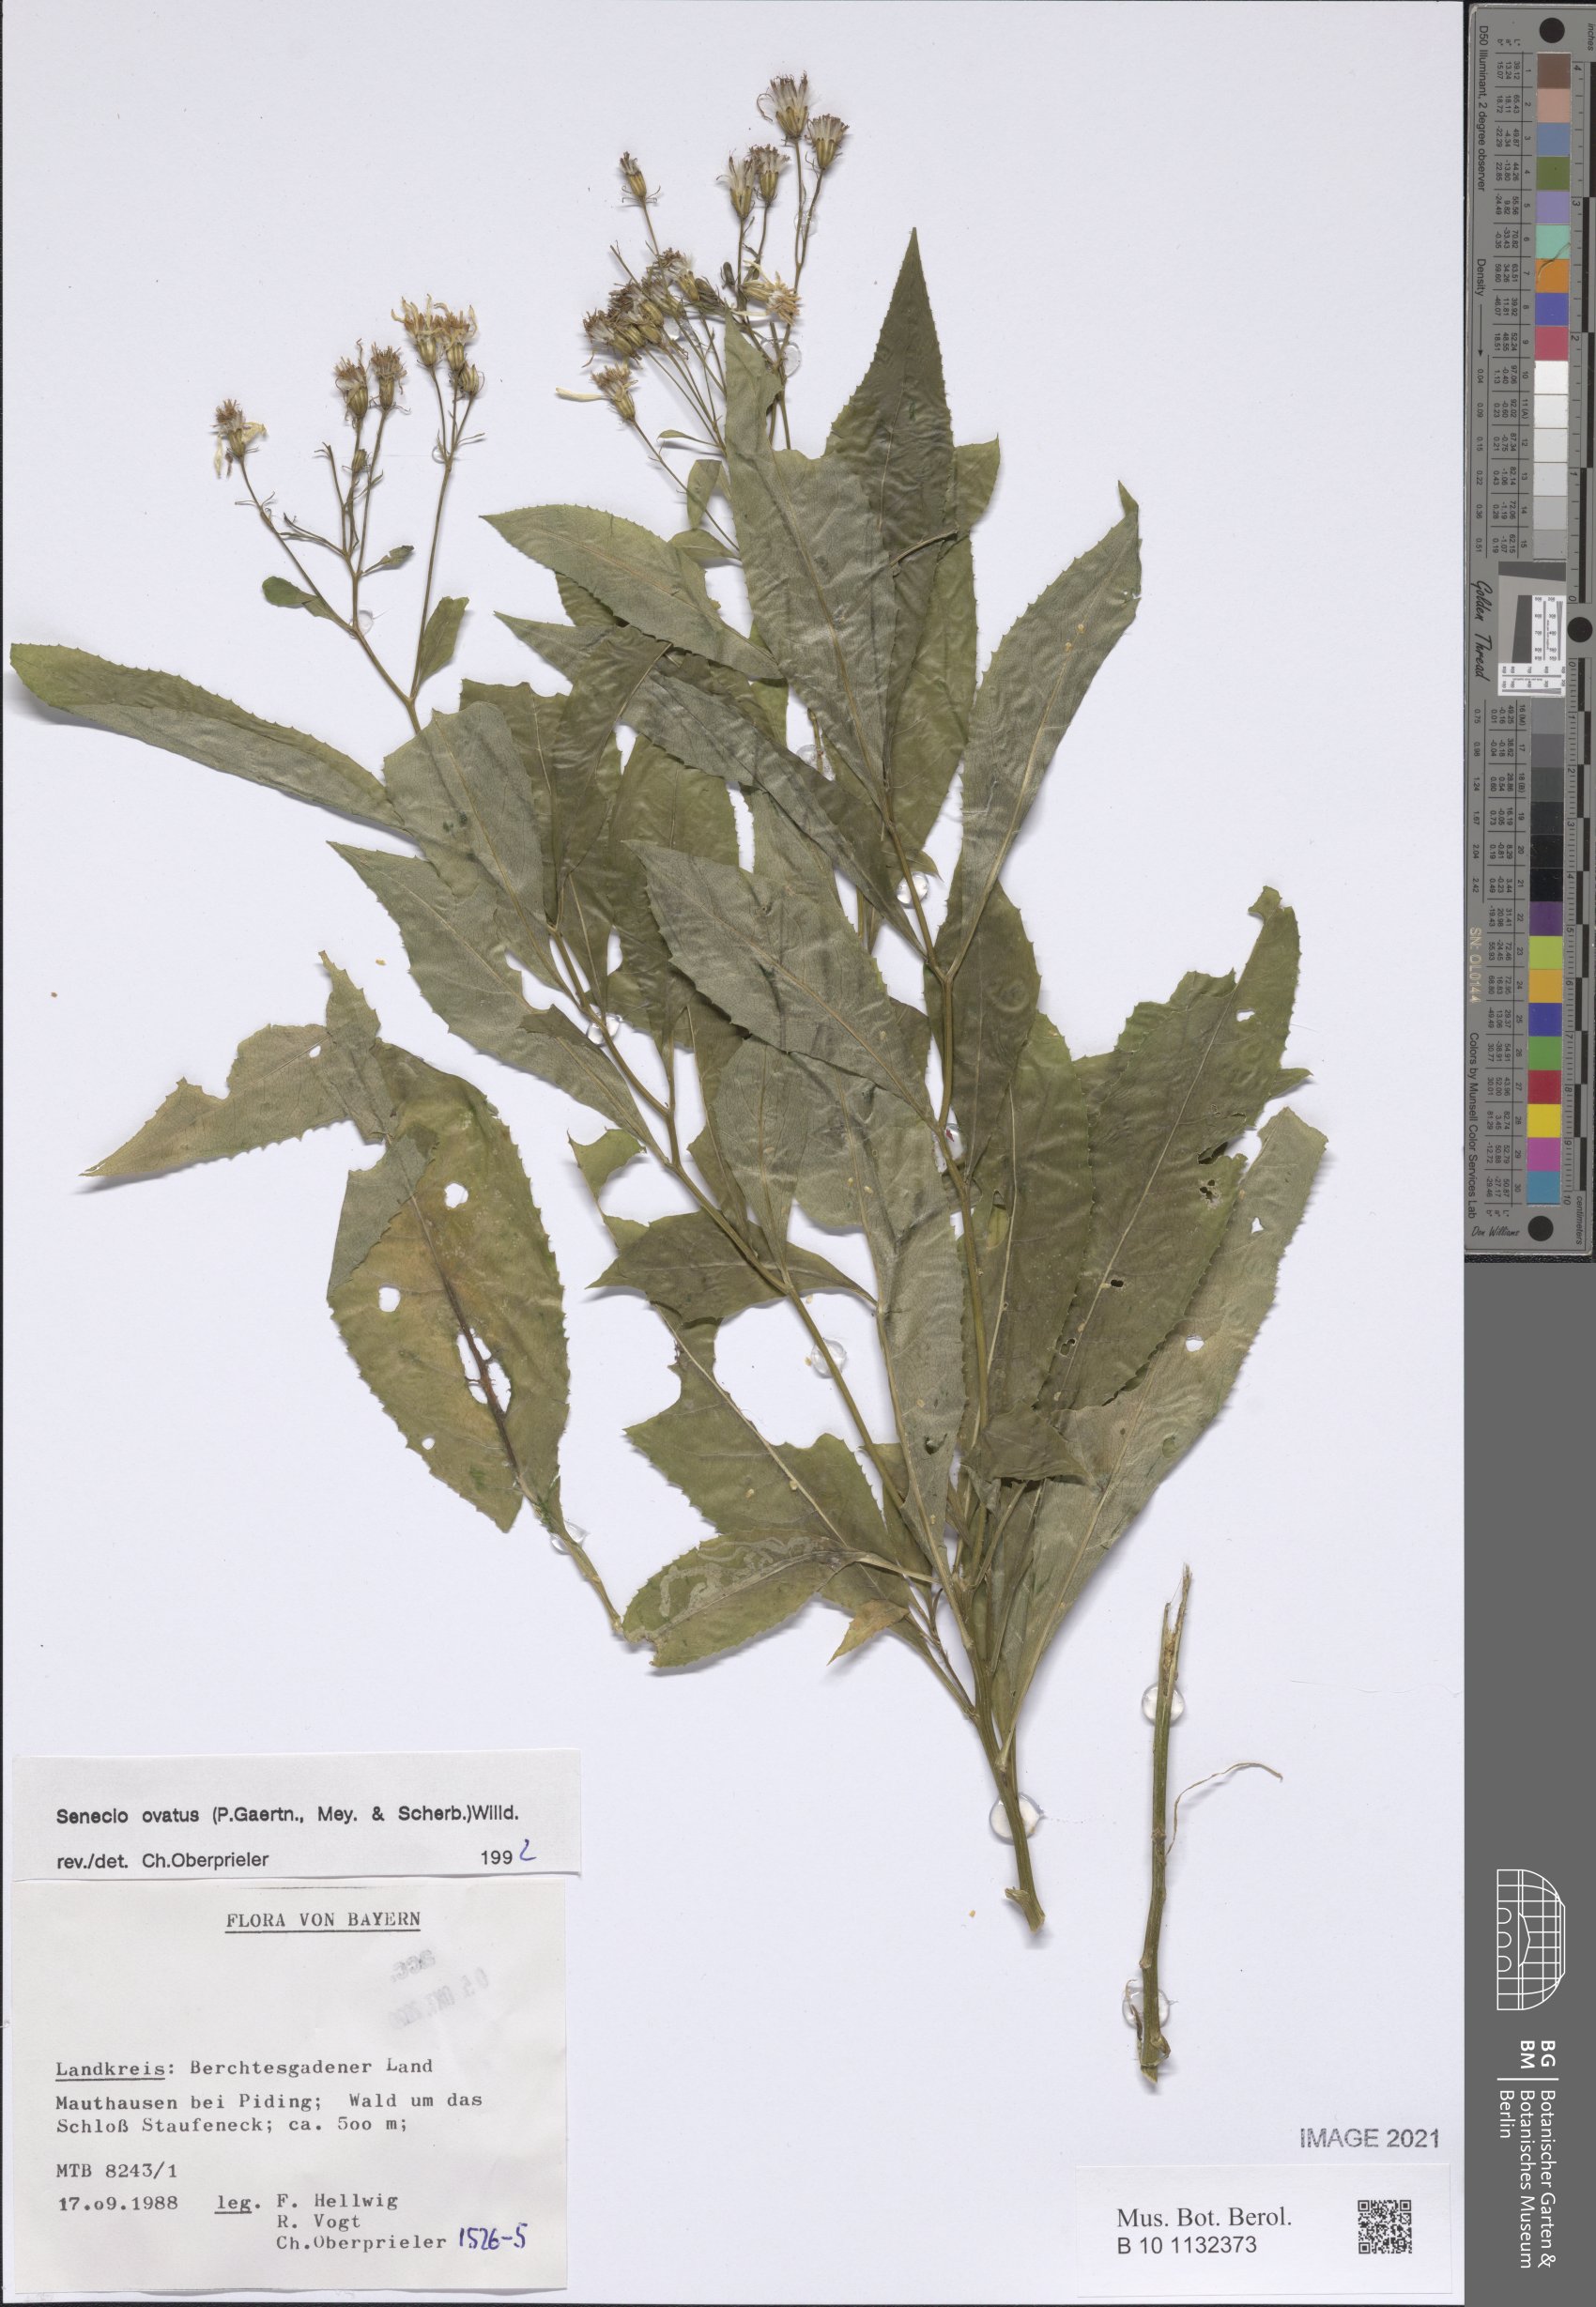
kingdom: Plantae
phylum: Tracheophyta
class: Magnoliopsida
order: Caryophyllales
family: Plumbaginaceae
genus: Limonium
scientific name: Limonium dolcheri
